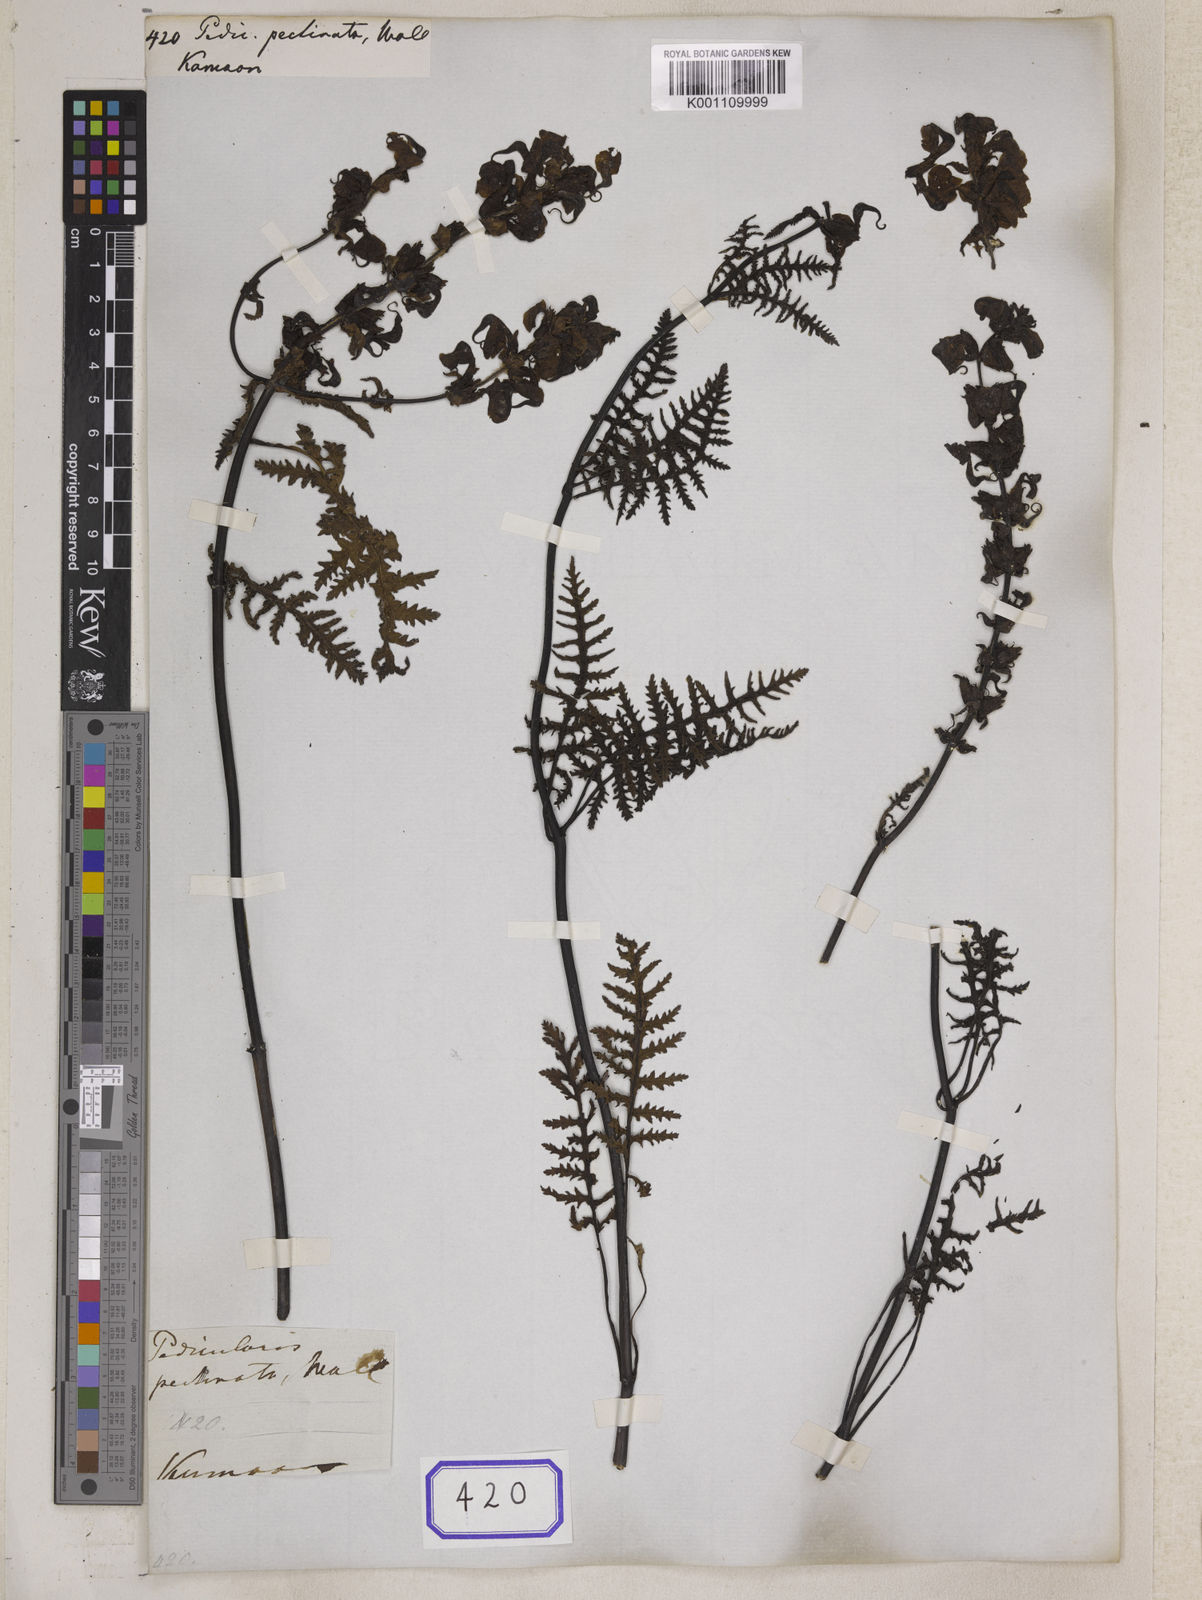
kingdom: Plantae
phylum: Tracheophyta
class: Magnoliopsida
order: Lamiales
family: Orobanchaceae
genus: Pedicularis
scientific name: Pedicularis
